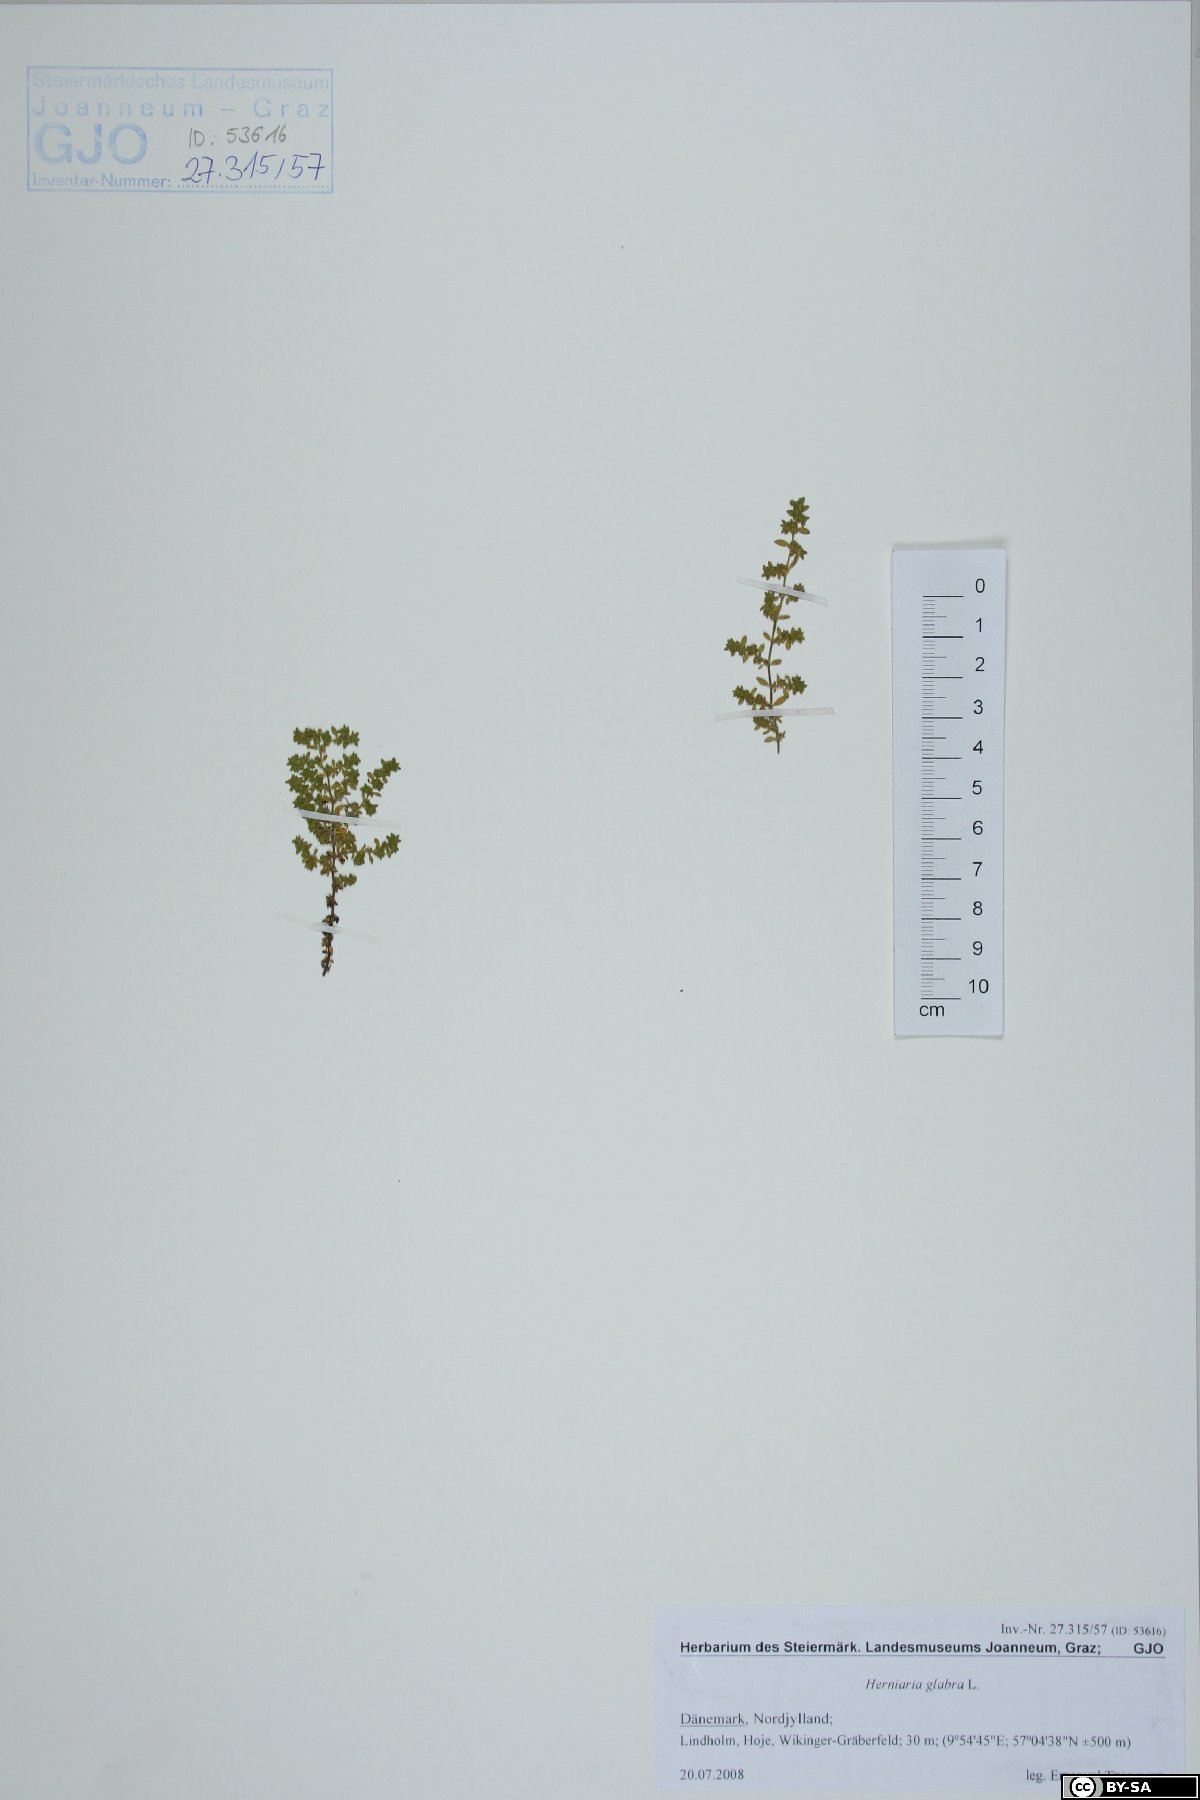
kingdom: Plantae
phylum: Tracheophyta
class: Magnoliopsida
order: Caryophyllales
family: Caryophyllaceae
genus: Herniaria
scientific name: Herniaria glabra
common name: Smooth rupturewort
